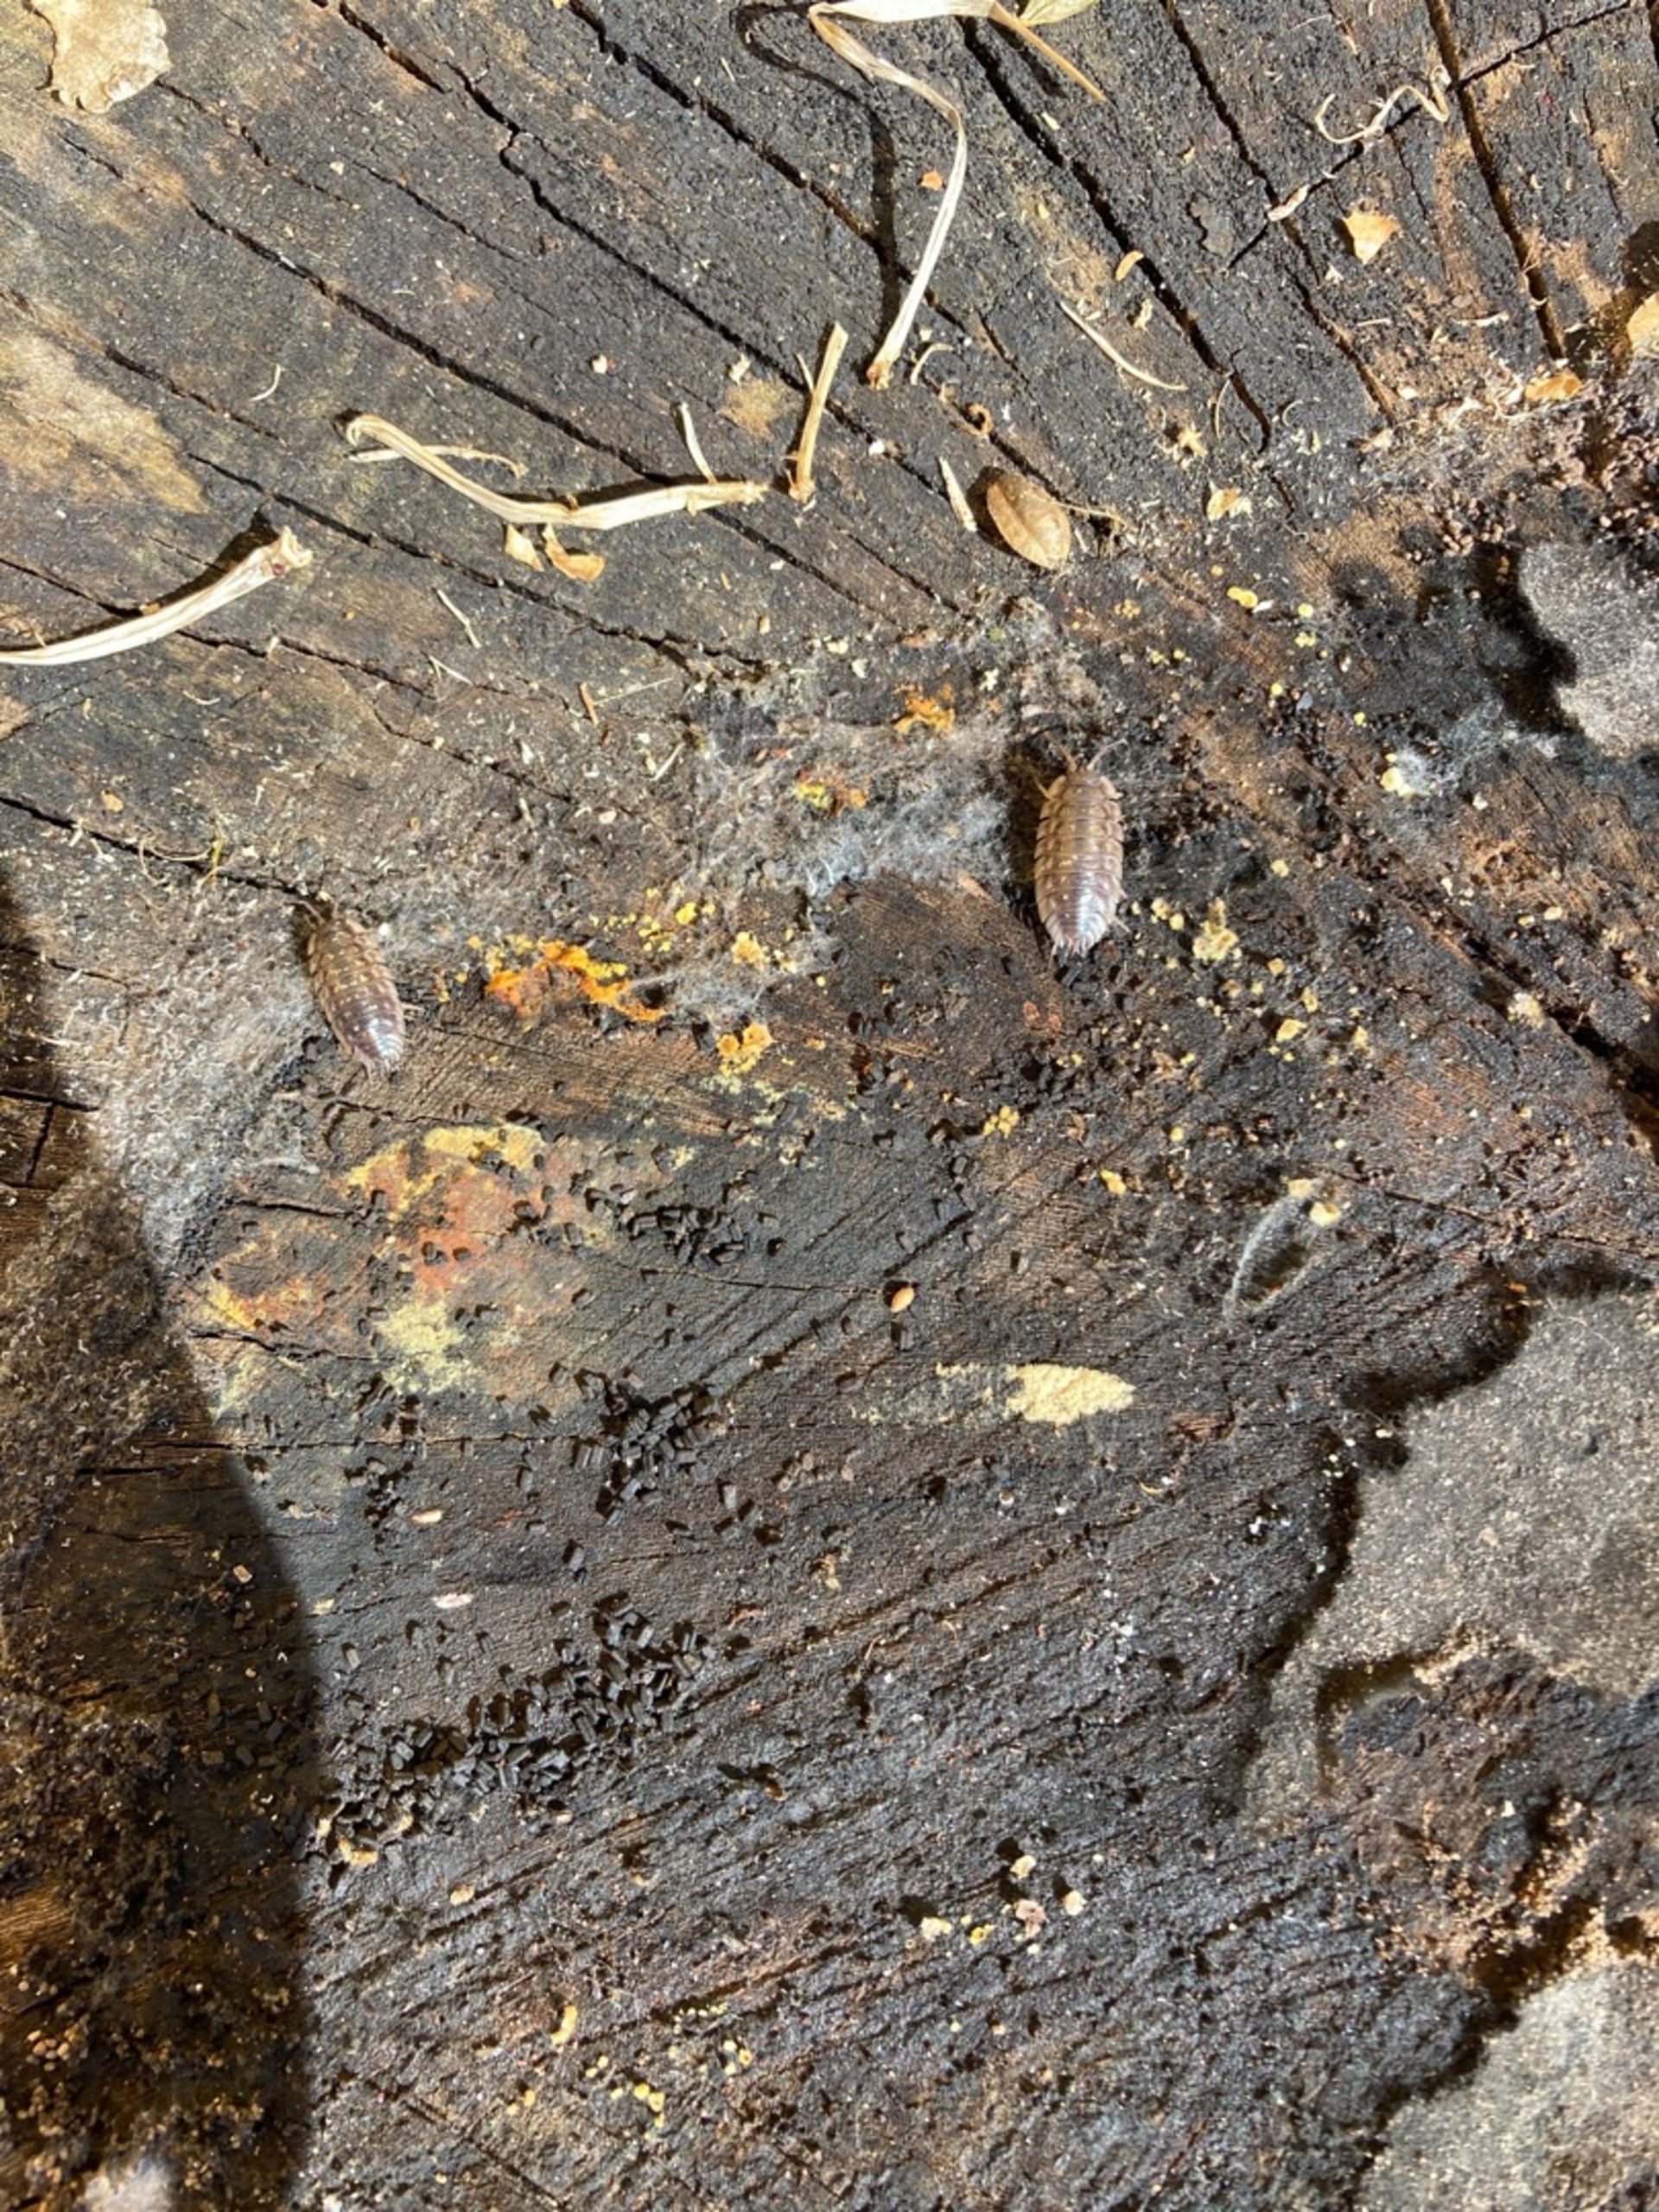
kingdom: Animalia
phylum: Arthropoda
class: Malacostraca
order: Isopoda
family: Oniscidae
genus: Oniscus
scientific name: Oniscus asellus
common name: Glat bænkebider
